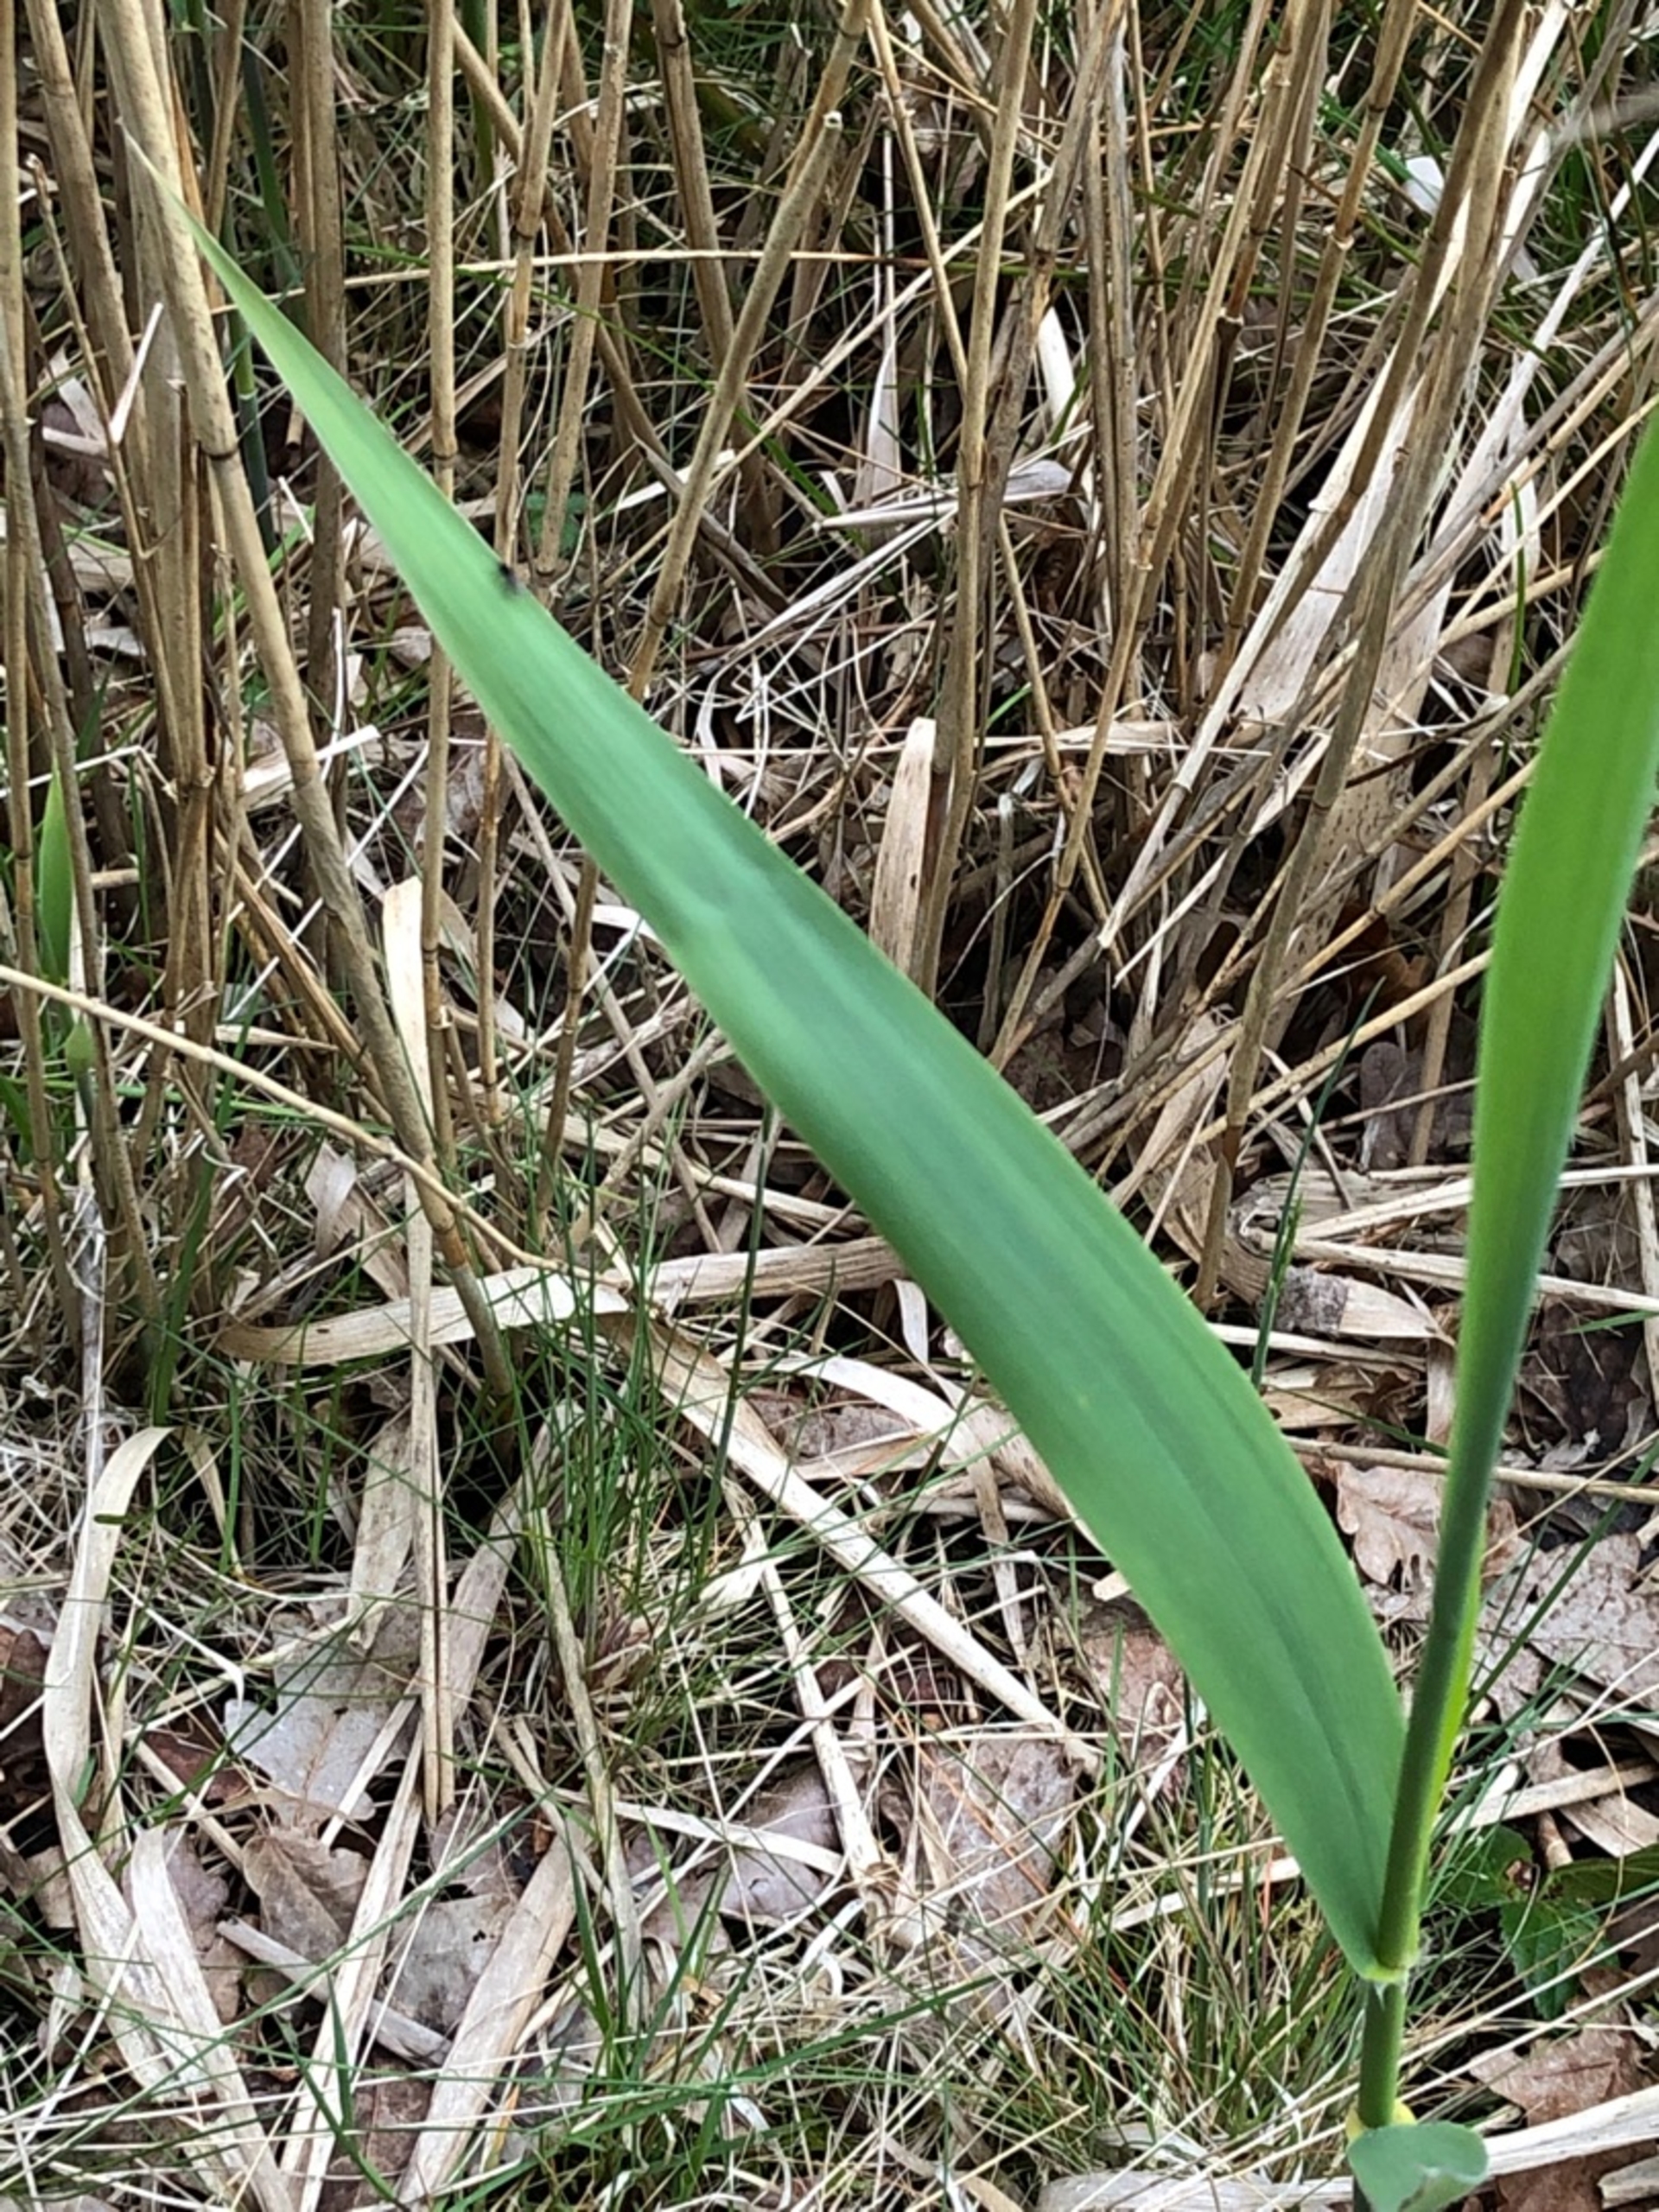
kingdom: Plantae
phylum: Tracheophyta
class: Liliopsida
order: Poales
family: Poaceae
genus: Phragmites
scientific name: Phragmites australis
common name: Tagrør
